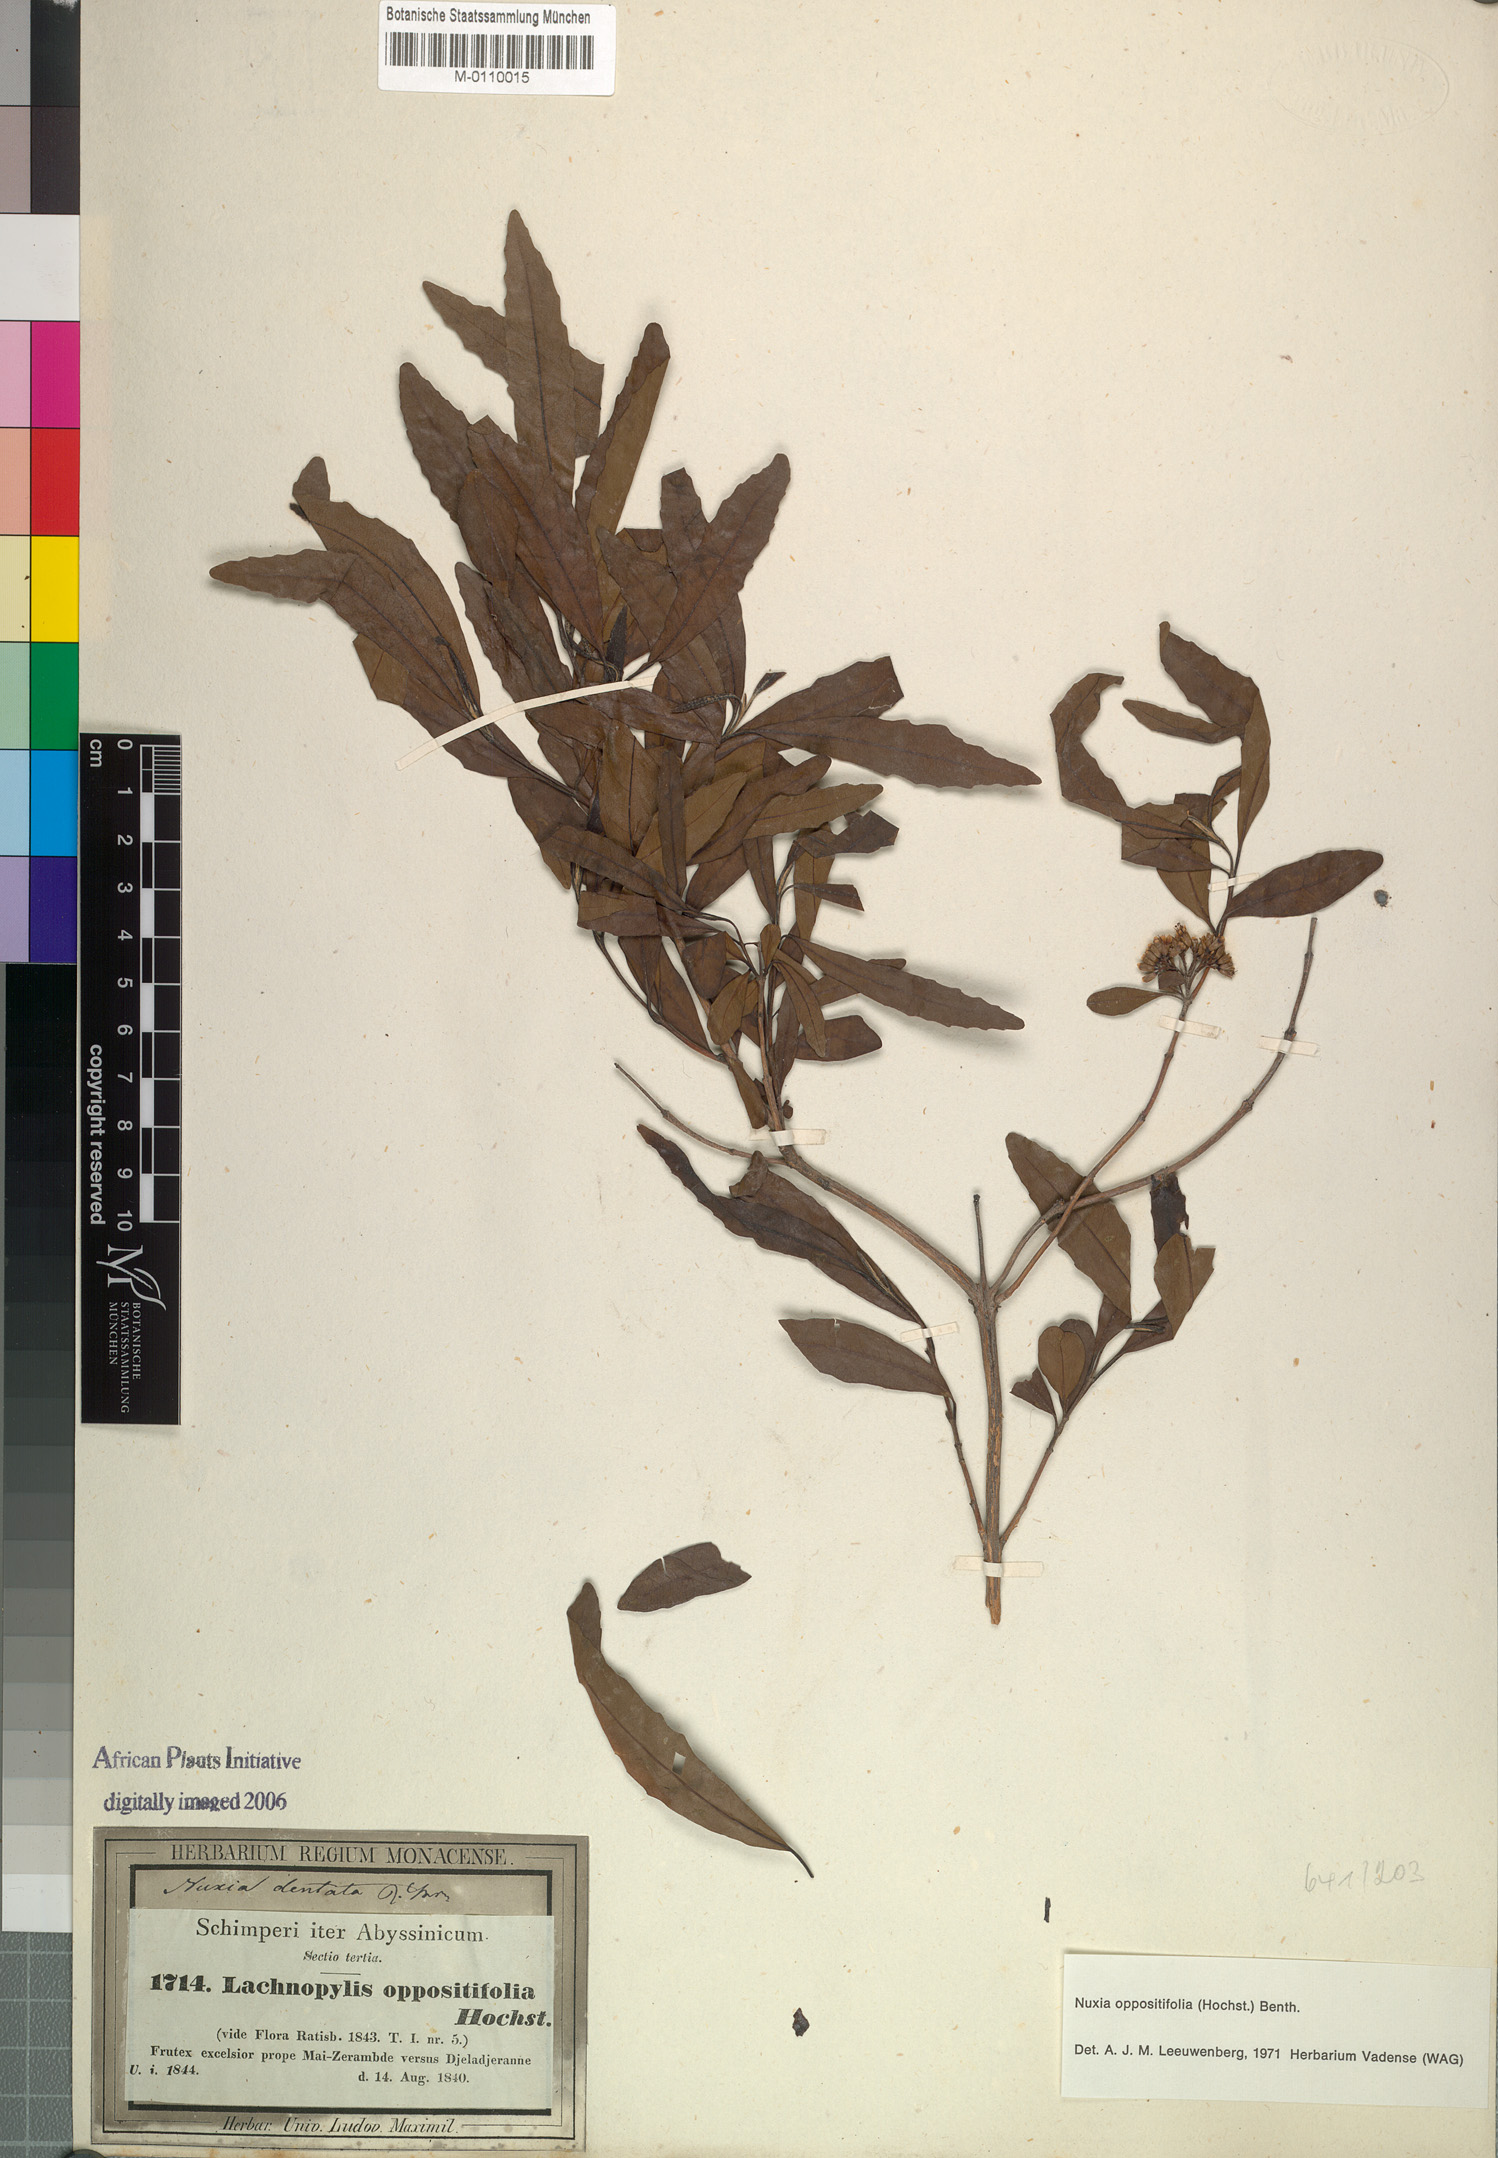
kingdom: Plantae
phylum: Tracheophyta
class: Magnoliopsida
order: Lamiales
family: Stilbaceae
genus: Nuxia
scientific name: Nuxia oppositifolia
